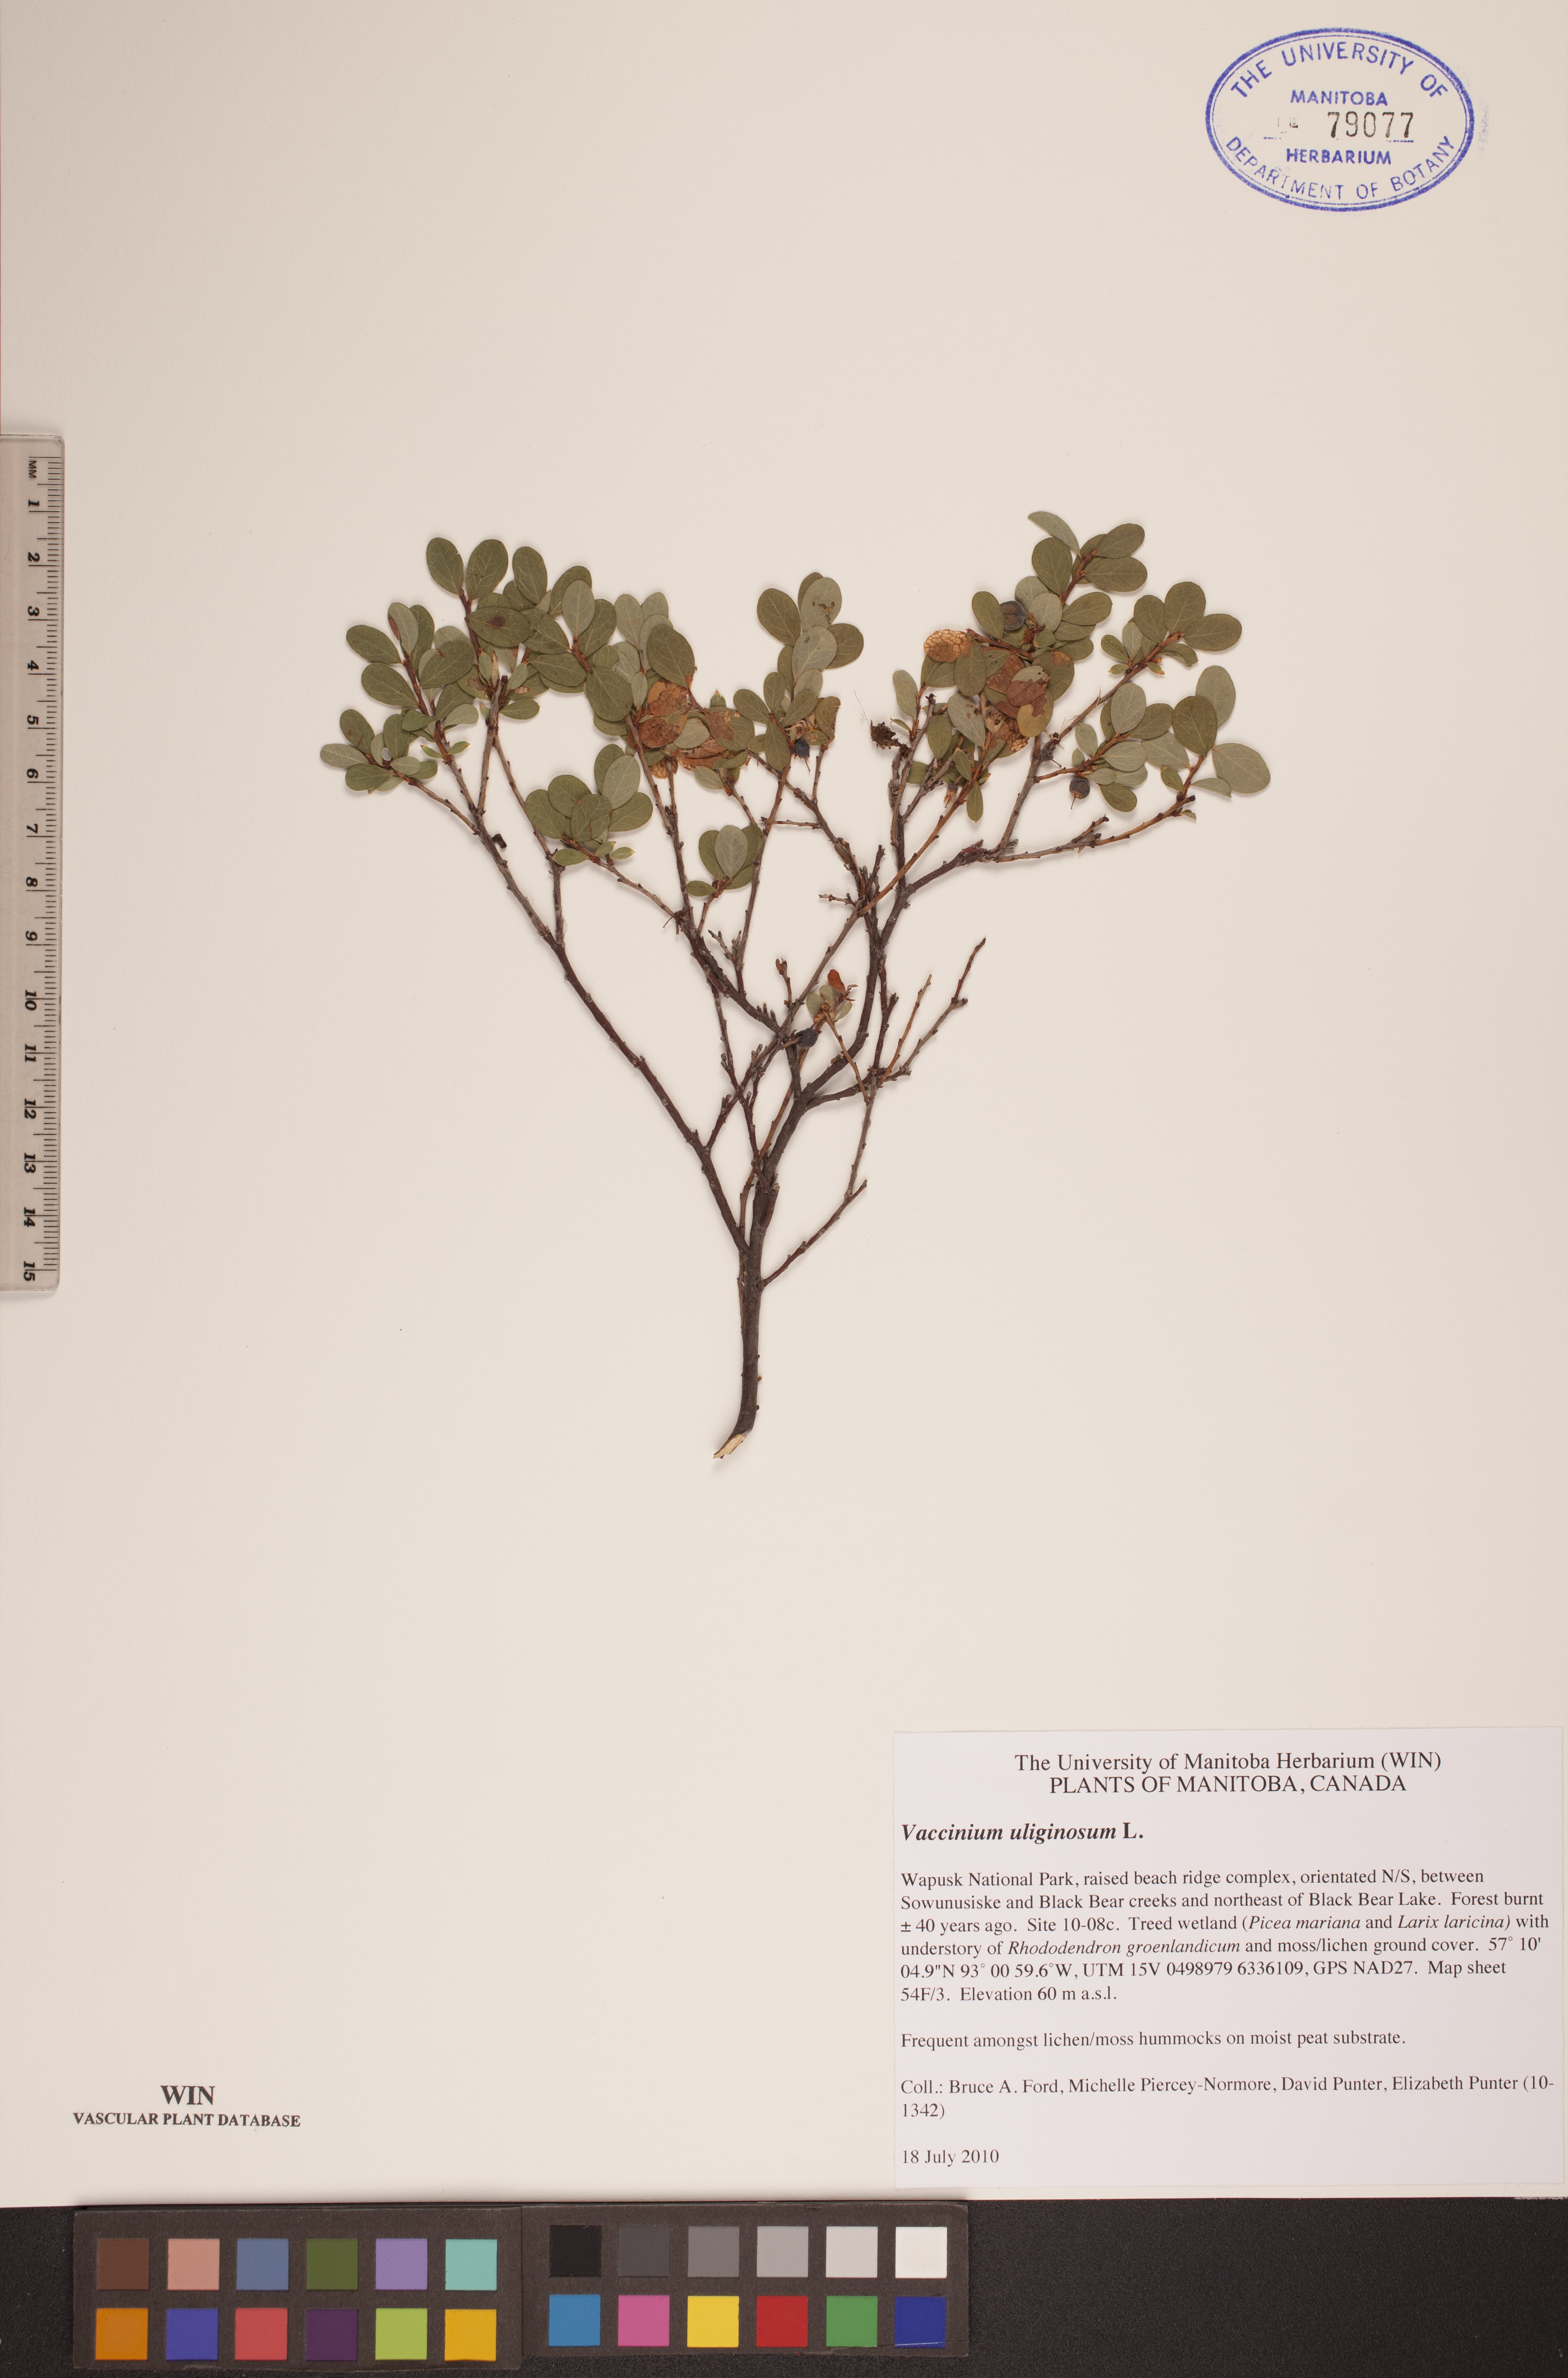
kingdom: Plantae
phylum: Tracheophyta
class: Magnoliopsida
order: Ericales
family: Ericaceae
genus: Vaccinium
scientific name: Vaccinium uliginosum
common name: Bog bilberry
